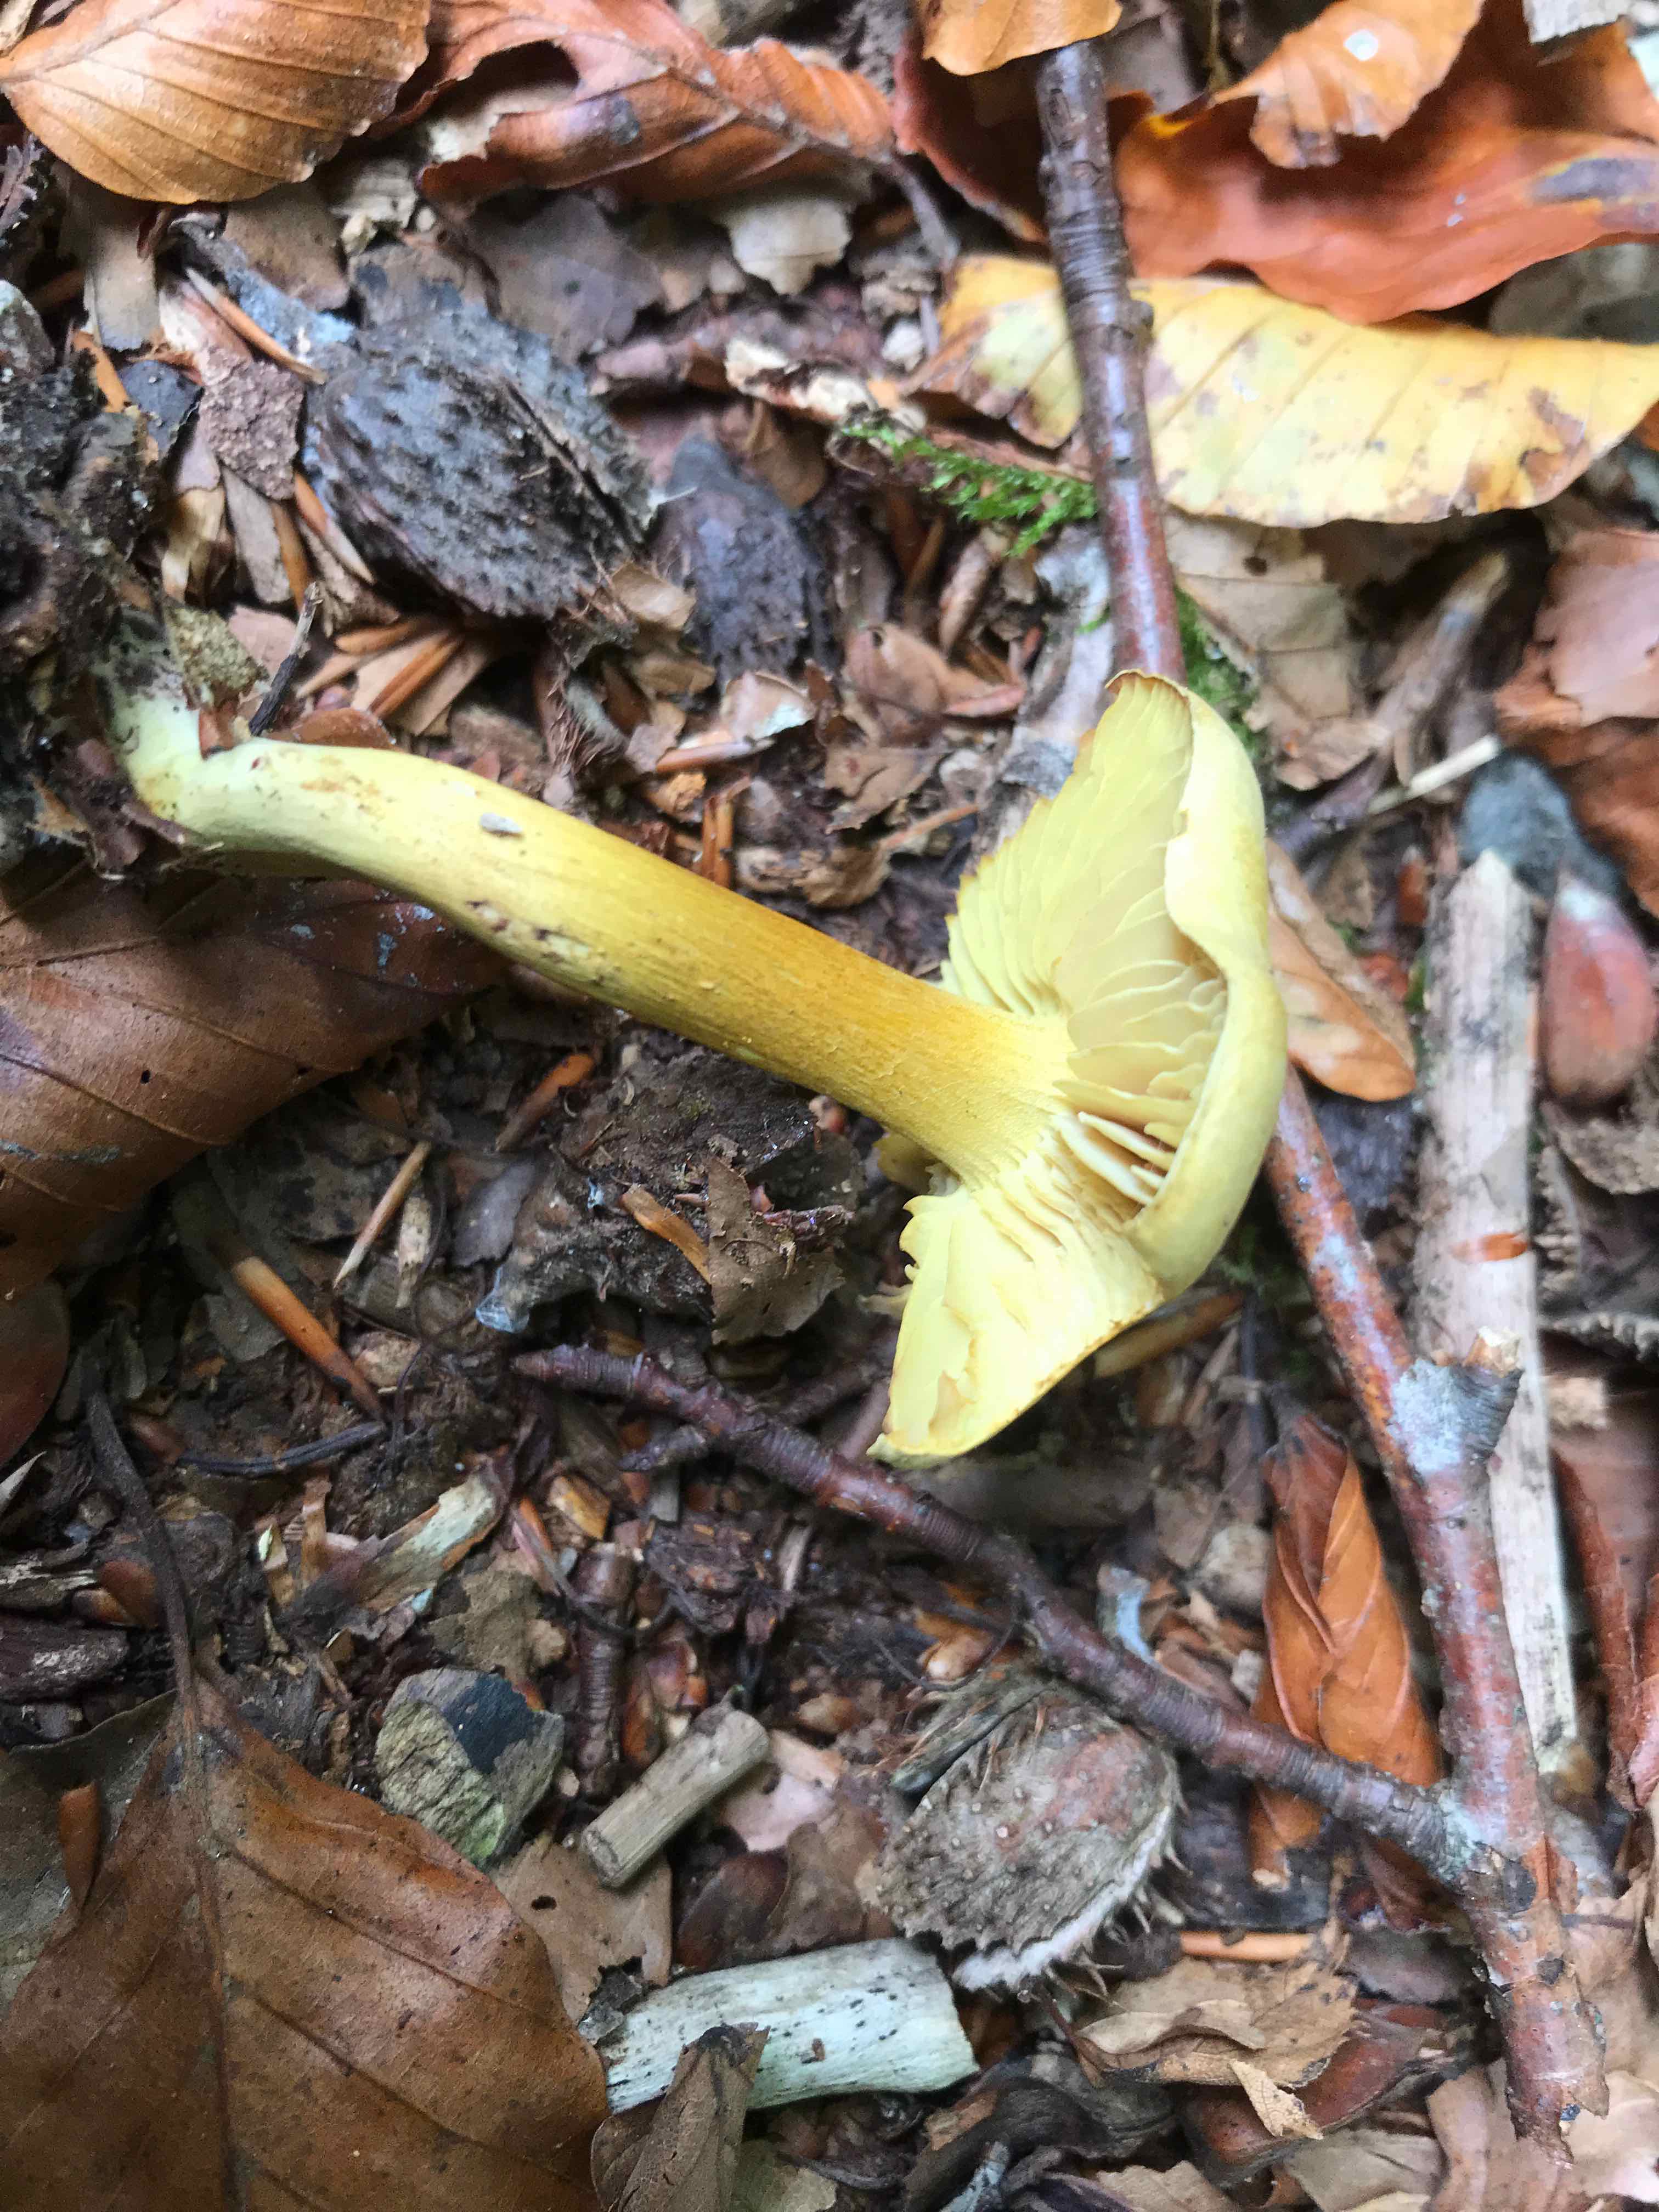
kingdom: Fungi
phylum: Basidiomycota
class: Agaricomycetes
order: Agaricales
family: Tricholomataceae
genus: Tricholoma
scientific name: Tricholoma sulphureum
